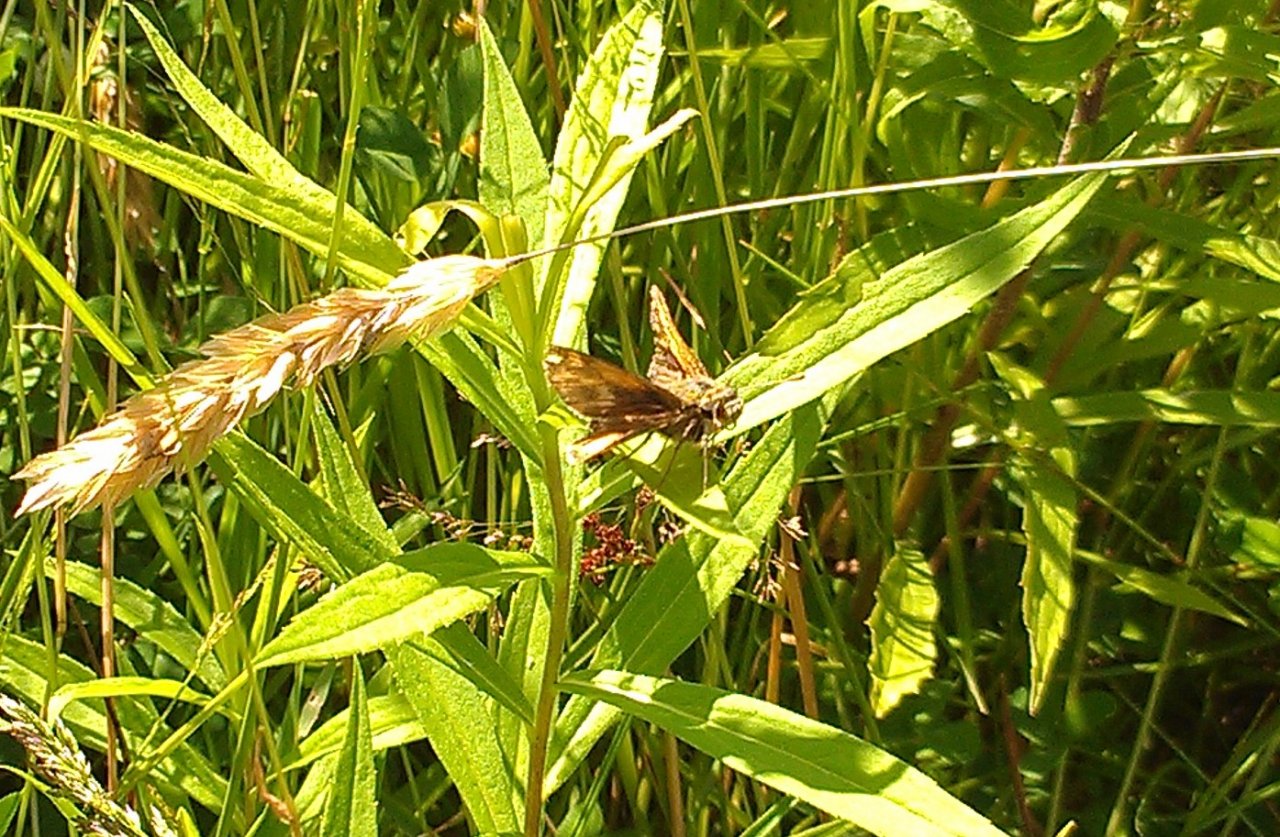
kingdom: Animalia
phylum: Arthropoda
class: Insecta
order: Lepidoptera
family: Hesperiidae
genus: Polites
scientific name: Polites coras
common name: Peck's Skipper
